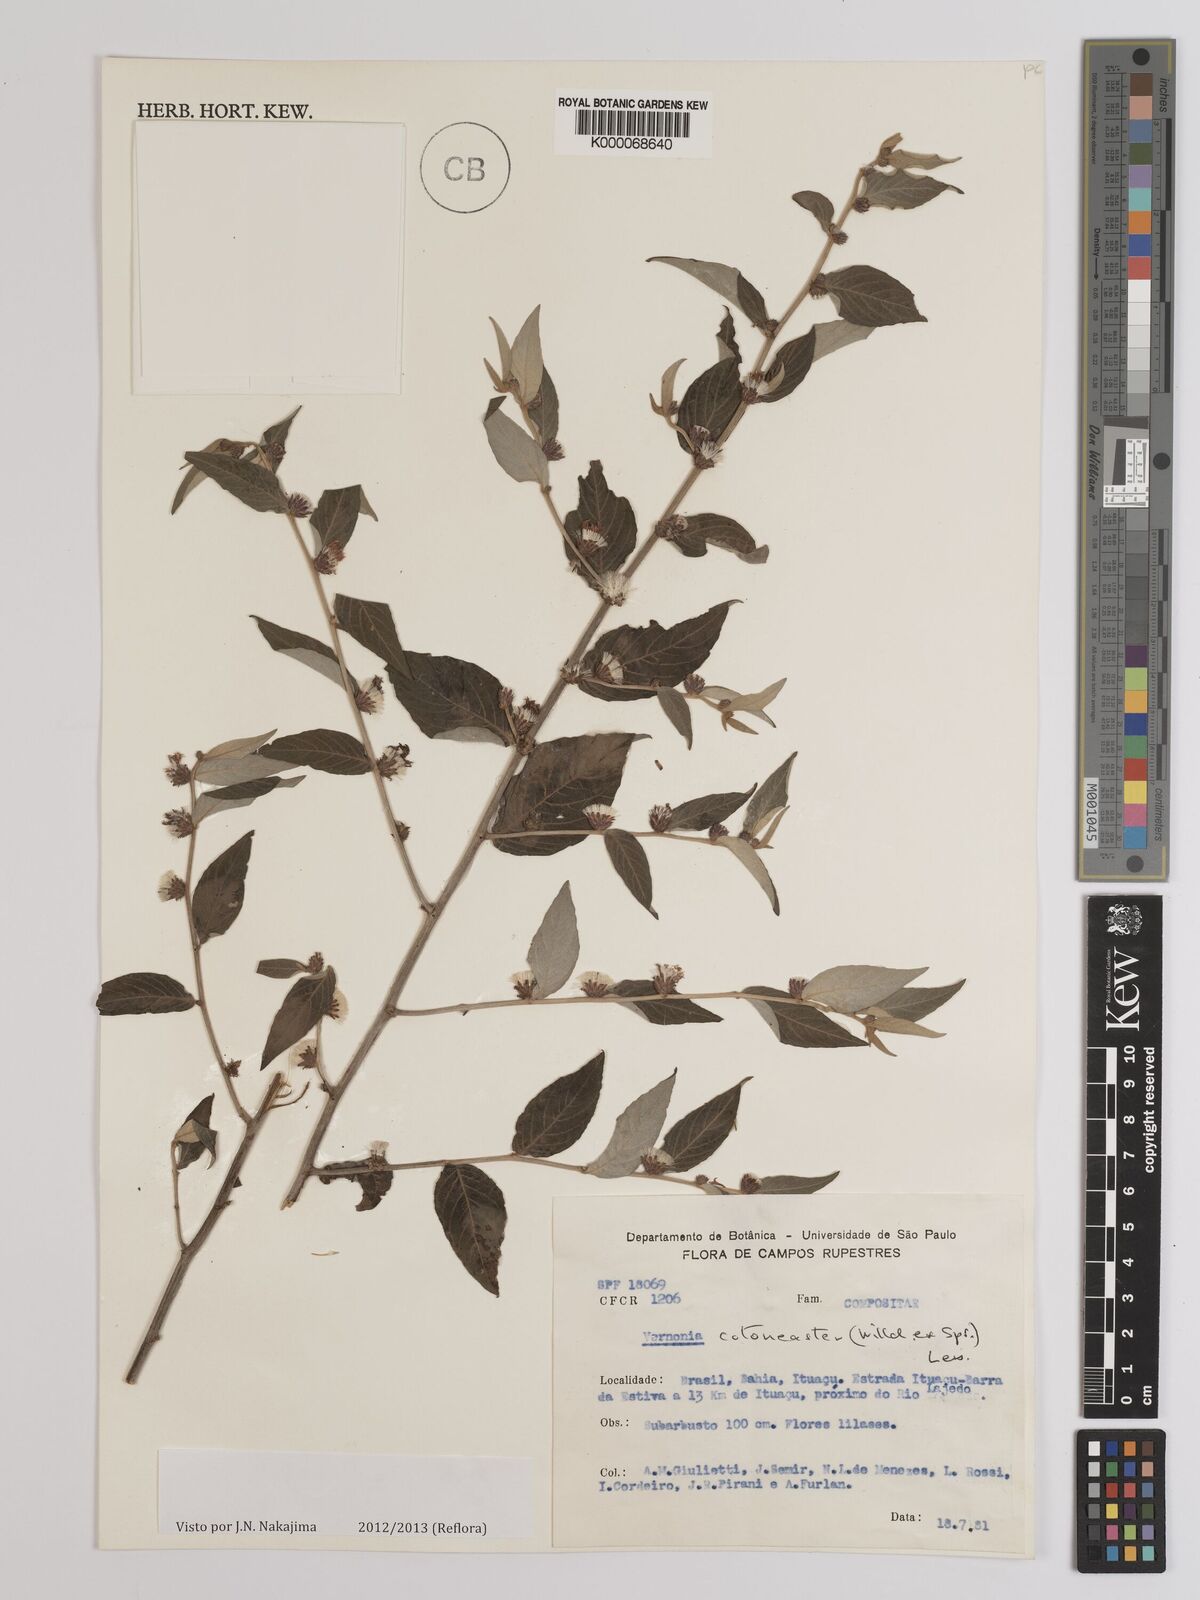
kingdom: Plantae
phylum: Tracheophyta
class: Magnoliopsida
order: Asterales
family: Asteraceae
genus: Lepidaploa
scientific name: Lepidaploa cotoneaster
